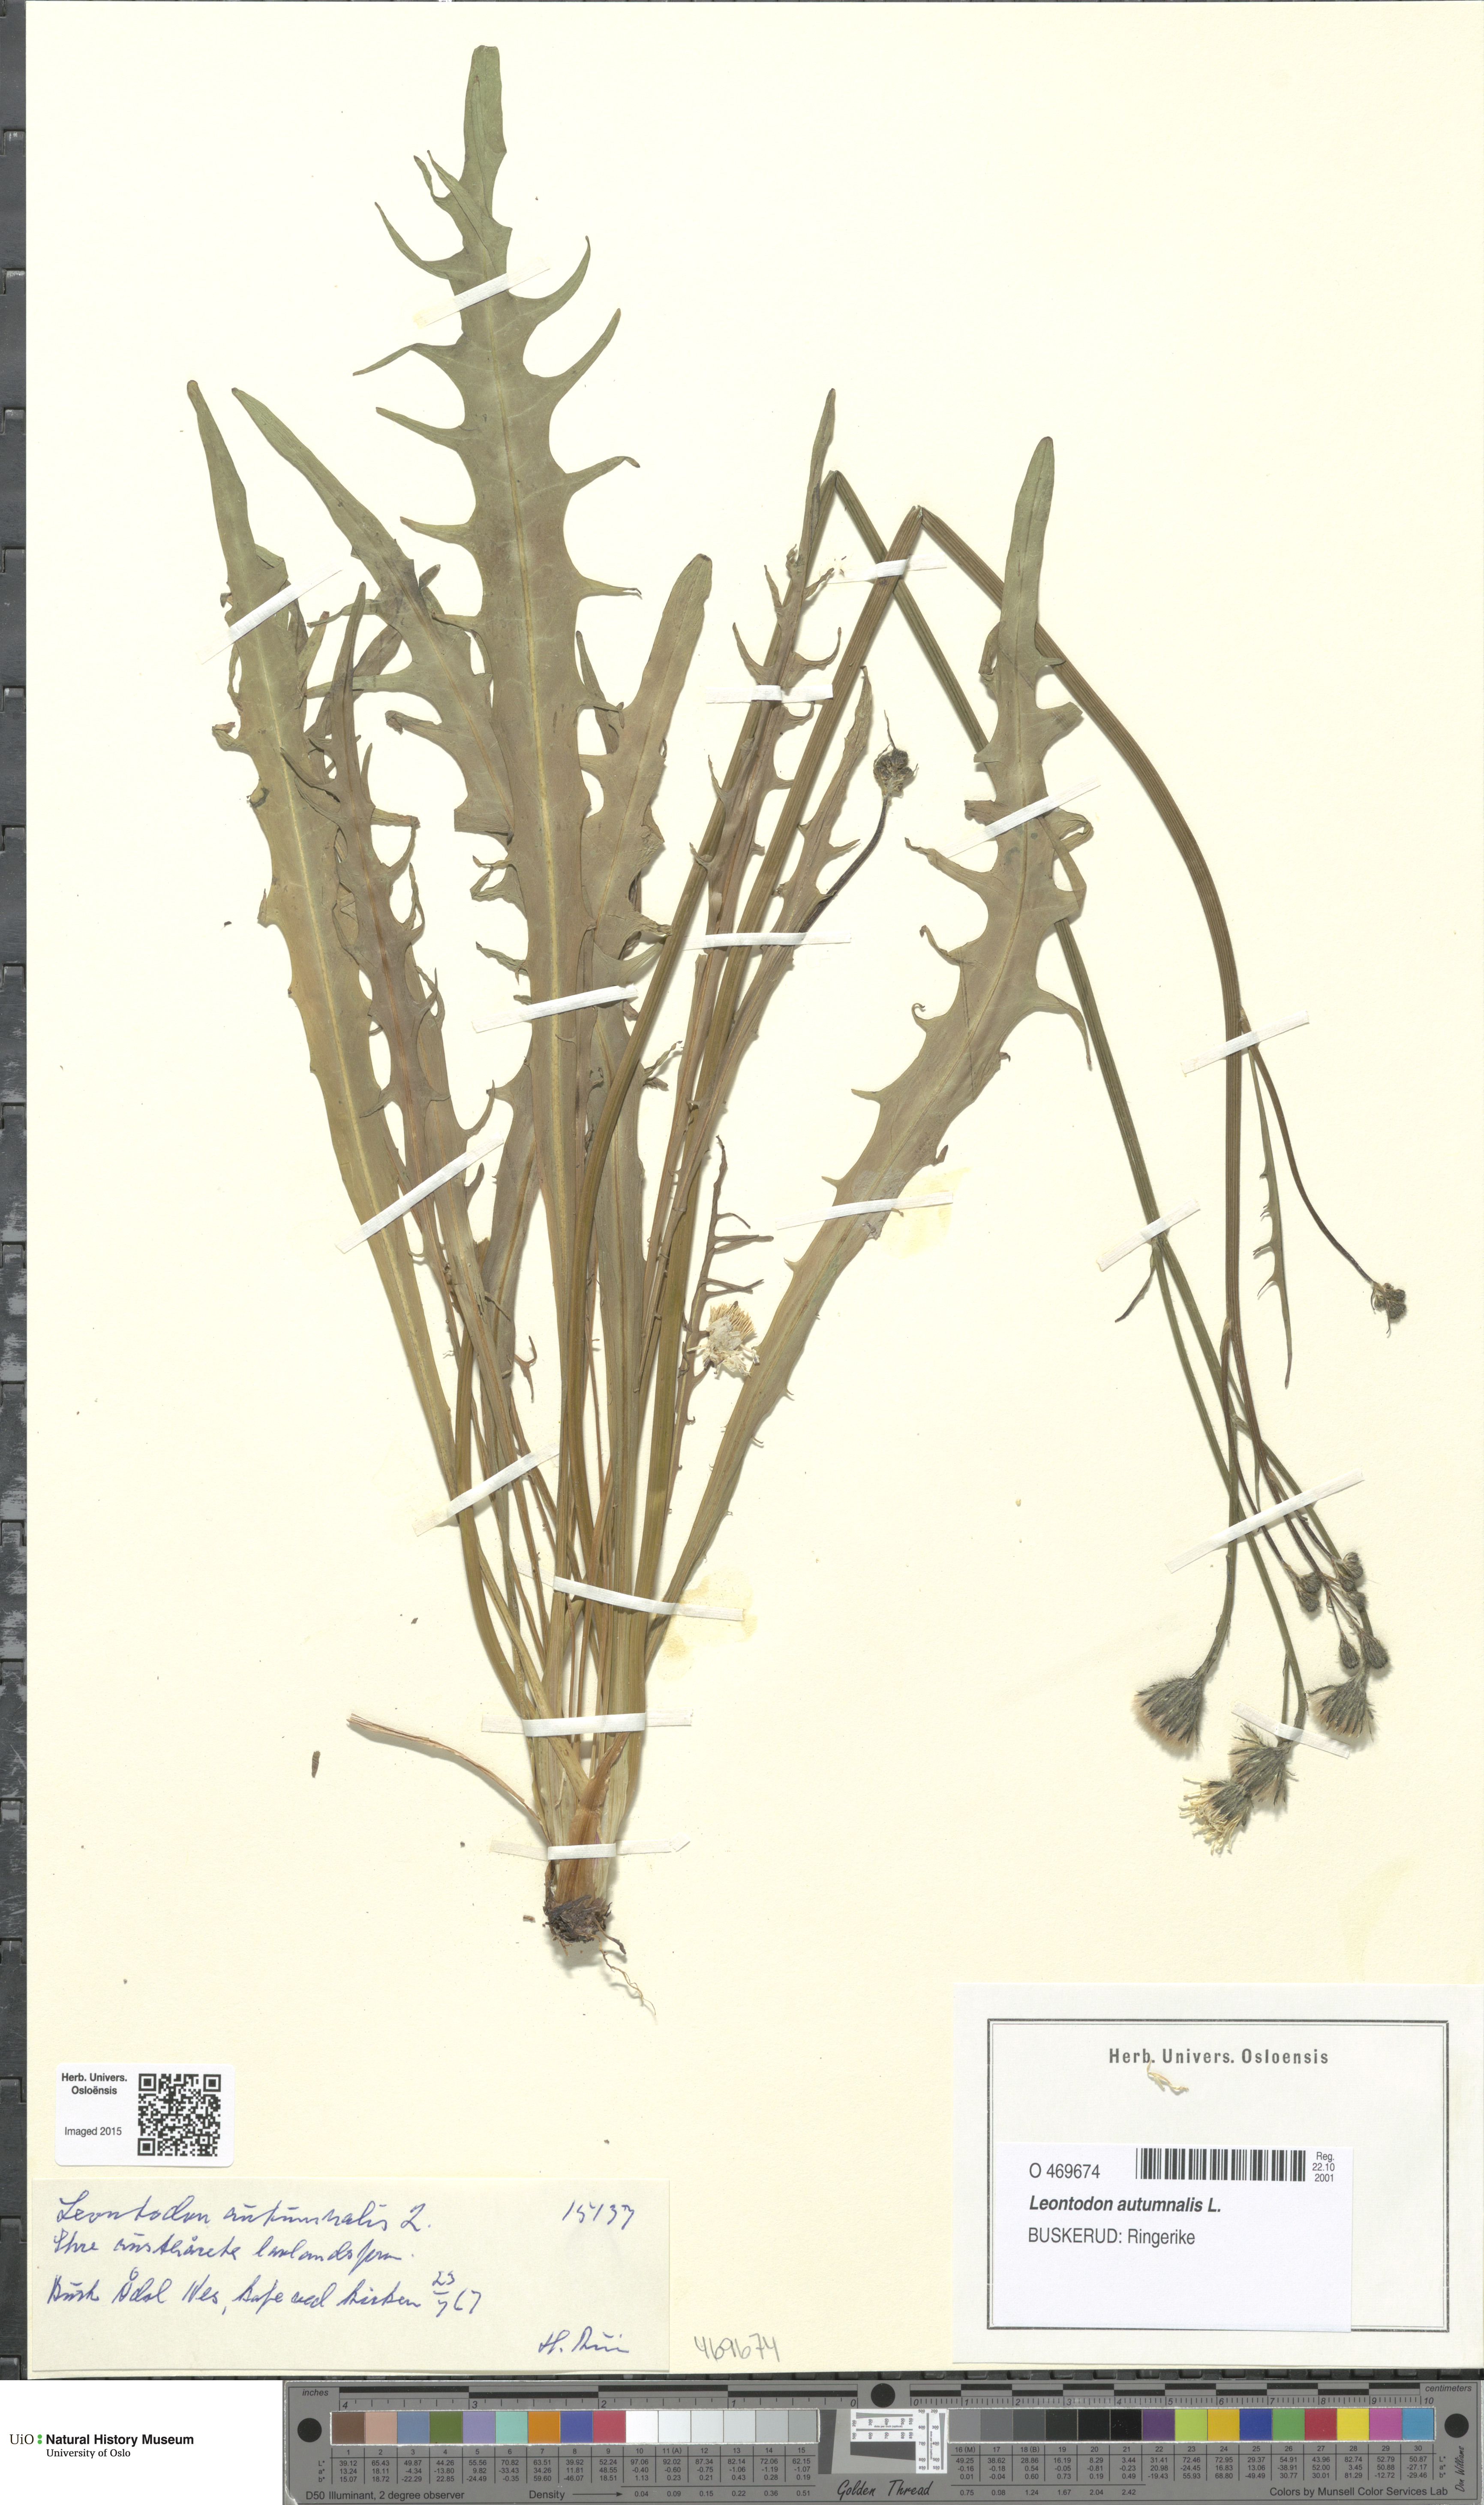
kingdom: Plantae
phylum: Tracheophyta
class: Magnoliopsida
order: Asterales
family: Asteraceae
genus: Scorzoneroides
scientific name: Scorzoneroides autumnalis
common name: Autumn hawkbit
